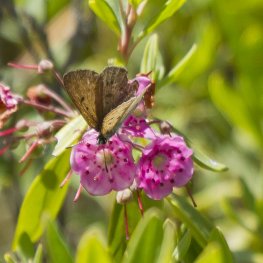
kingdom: Animalia
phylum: Arthropoda
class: Insecta
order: Lepidoptera
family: Sesiidae
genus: Sesia
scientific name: Sesia Lycaena epixanthe
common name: Bog Copper
